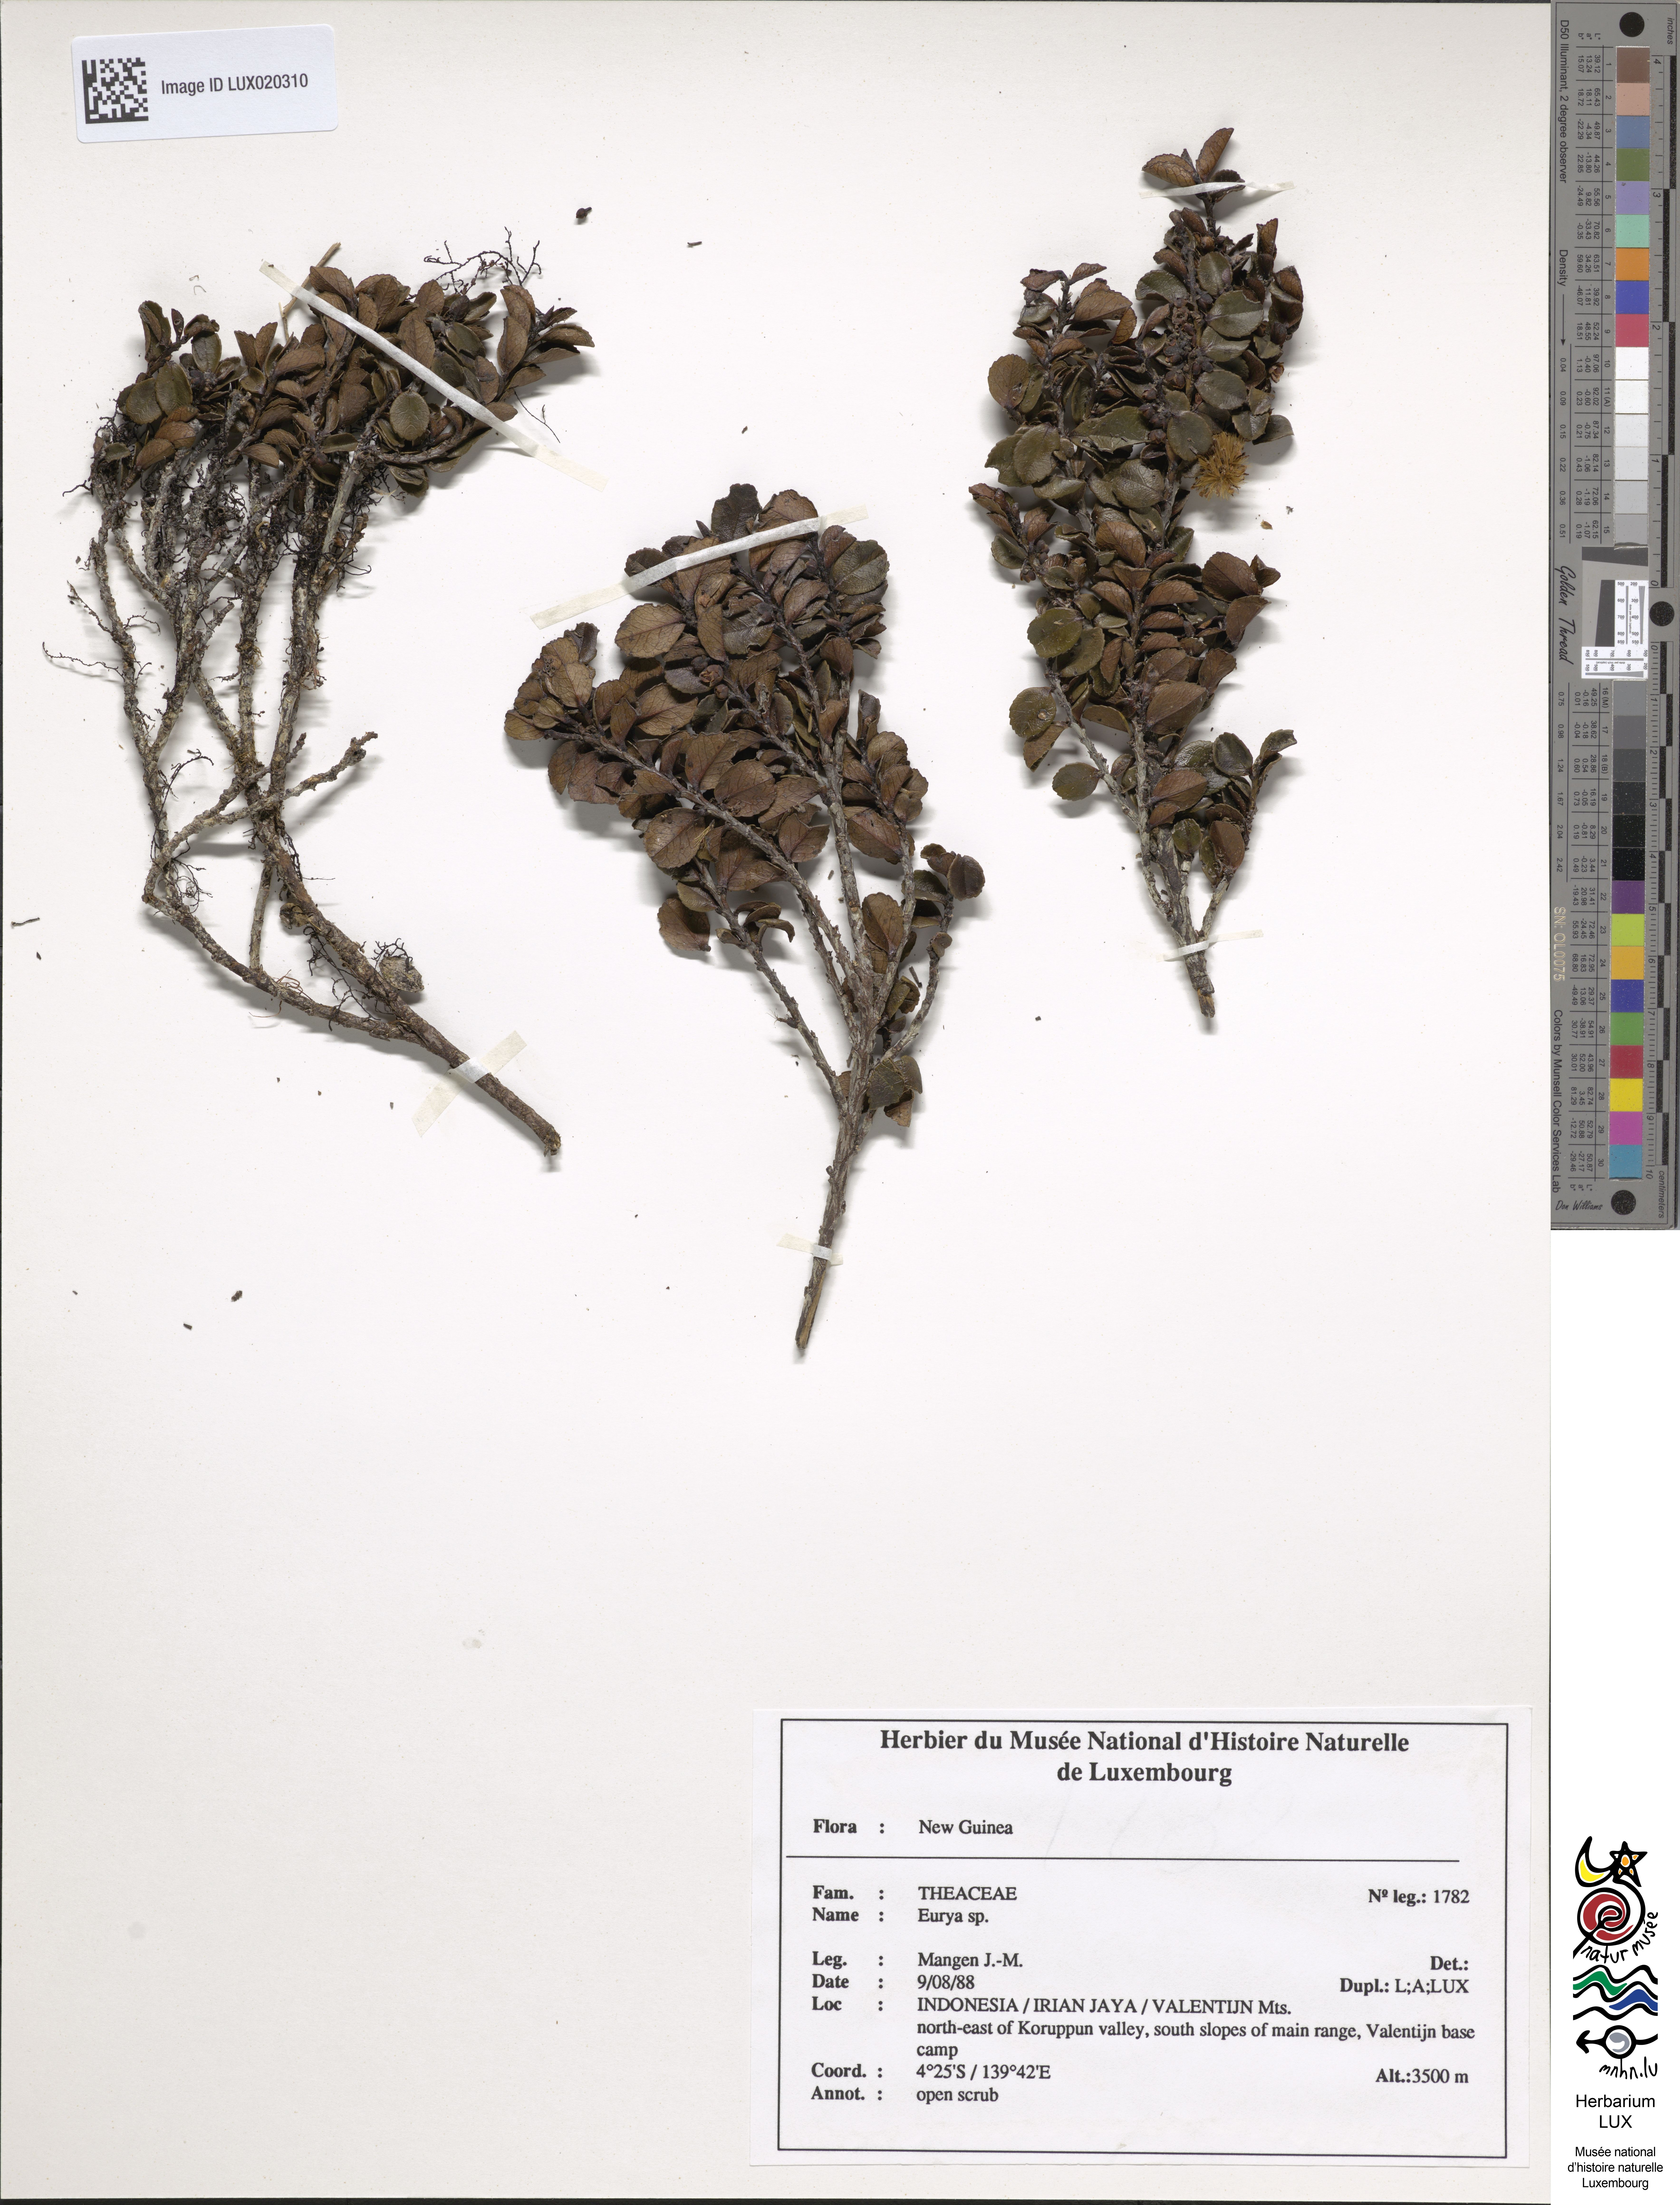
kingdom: Plantae
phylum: Tracheophyta
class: Magnoliopsida
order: Ericales
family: Pentaphylacaceae
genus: Eurya
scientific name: Eurya
